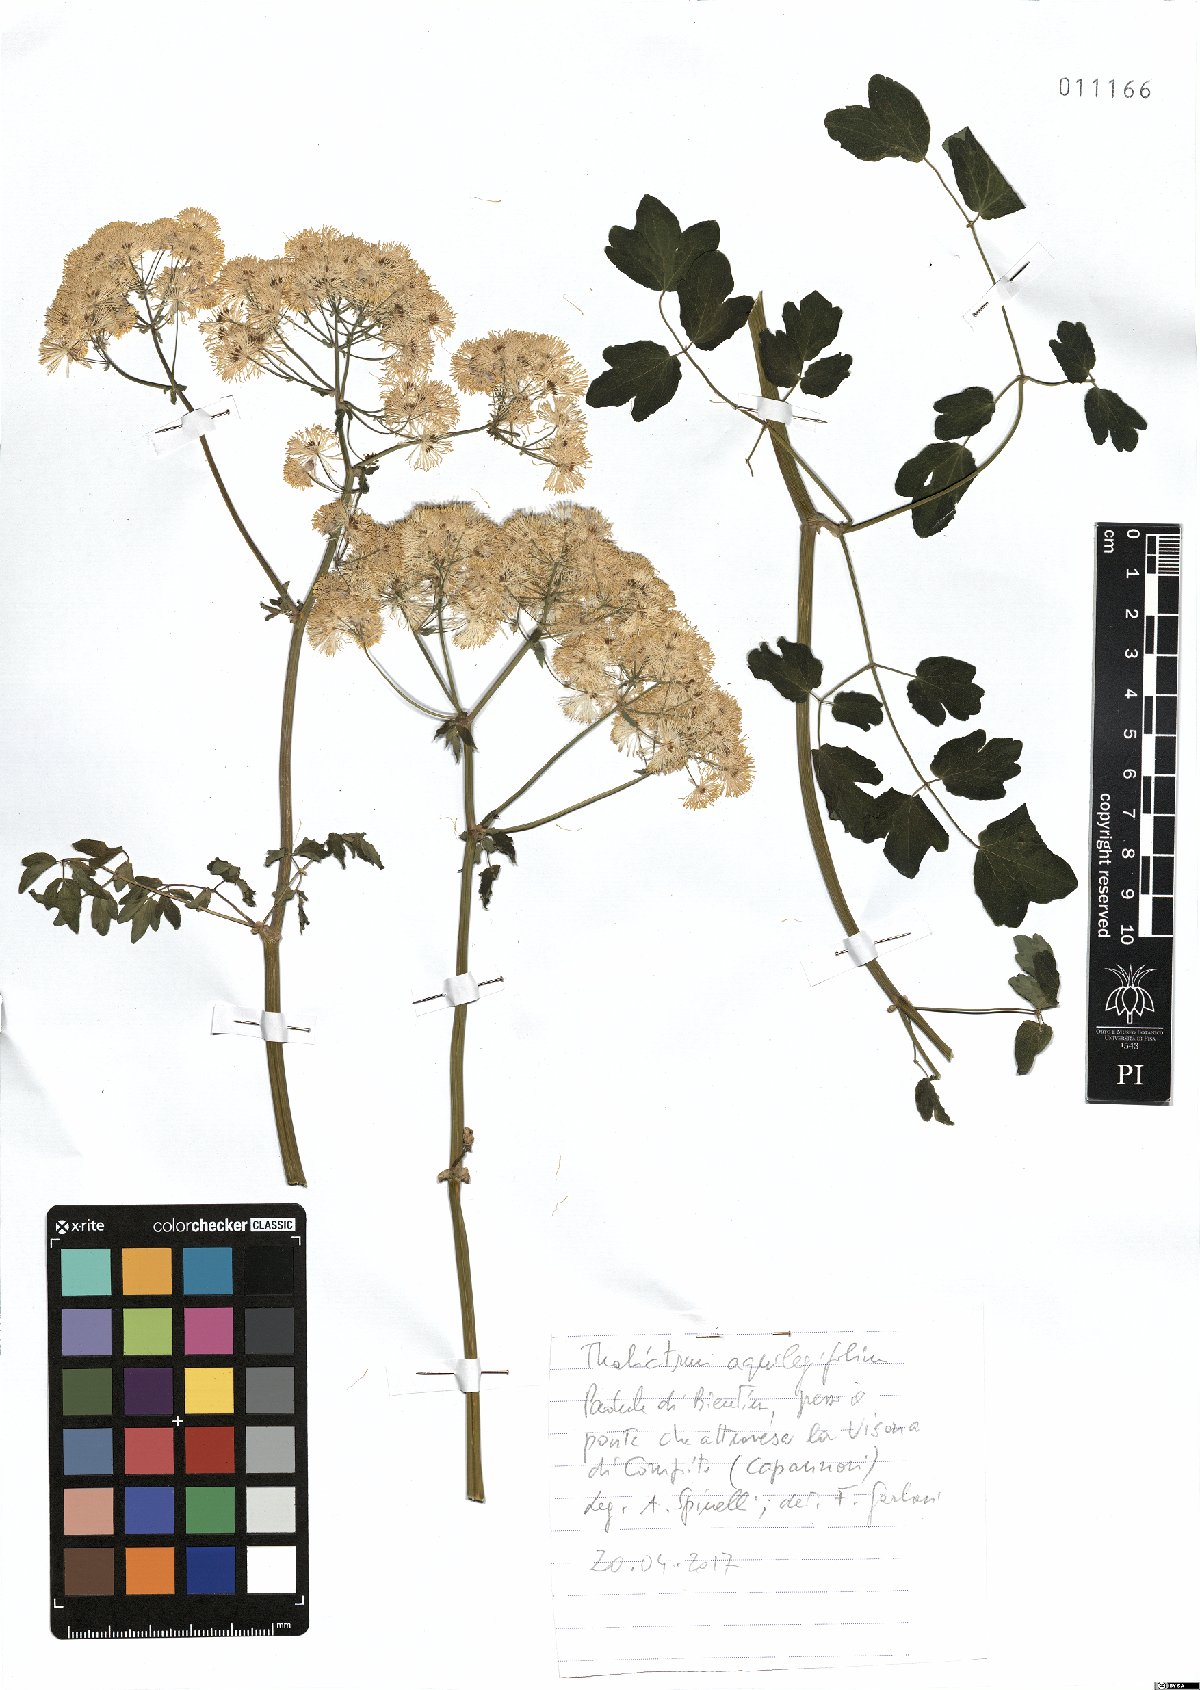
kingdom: Plantae
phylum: Tracheophyta
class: Magnoliopsida
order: Ranunculales
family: Ranunculaceae
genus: Thalictrum
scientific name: Thalictrum aquilegiifolium
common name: French meadow-rue
